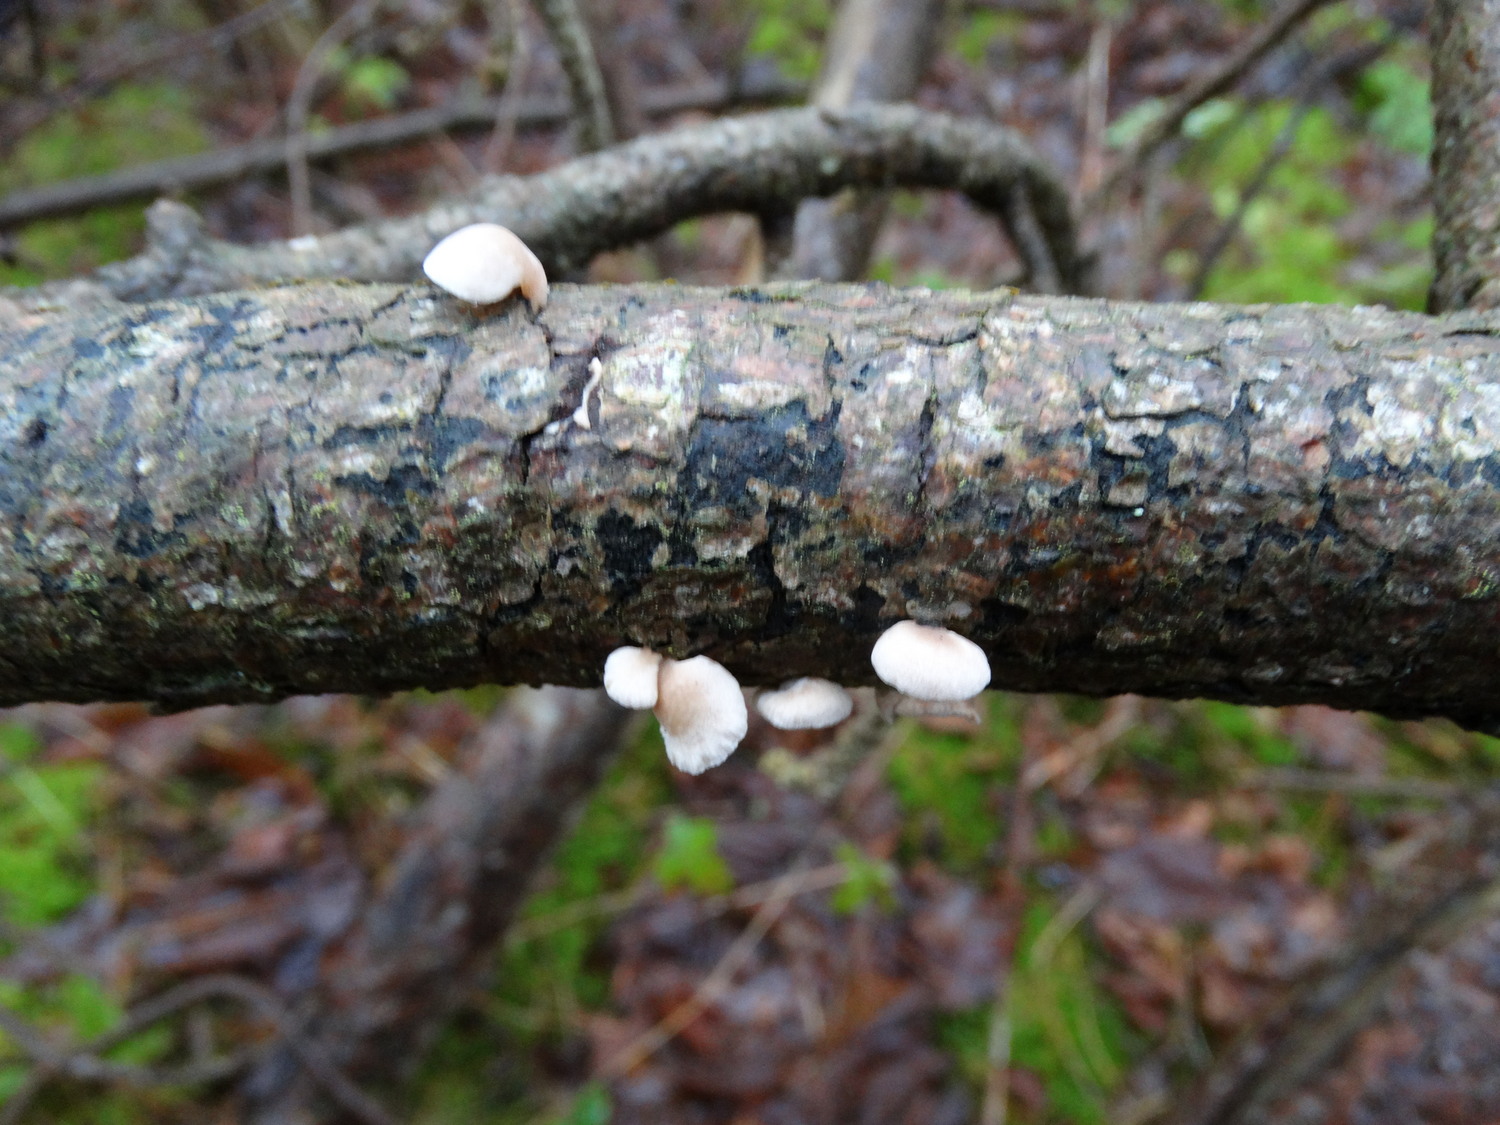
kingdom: Fungi
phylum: Basidiomycota
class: Agaricomycetes
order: Agaricales
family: Mycenaceae
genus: Panellus
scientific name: Panellus mitis
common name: mild epaulethat
